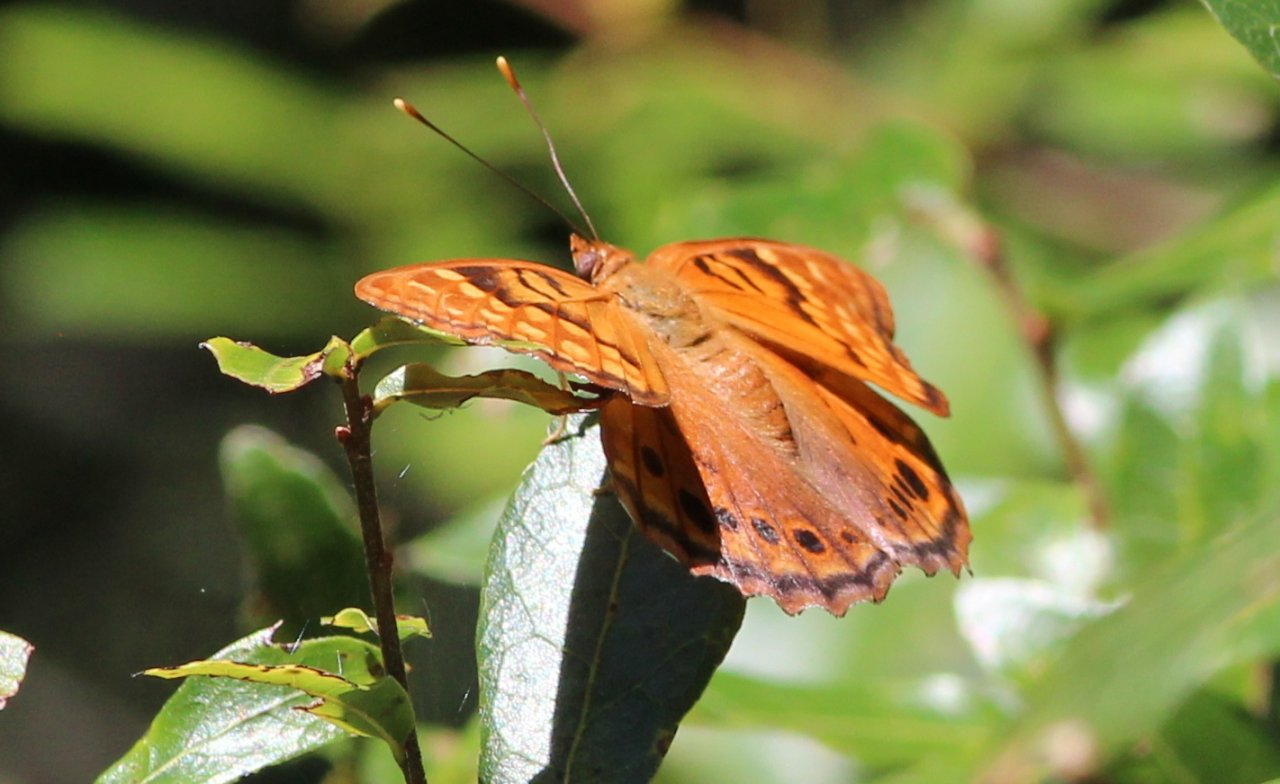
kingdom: Animalia
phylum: Arthropoda
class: Insecta
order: Lepidoptera
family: Nymphalidae
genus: Asterocampa
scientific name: Asterocampa clyton
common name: Tawny Emperor
